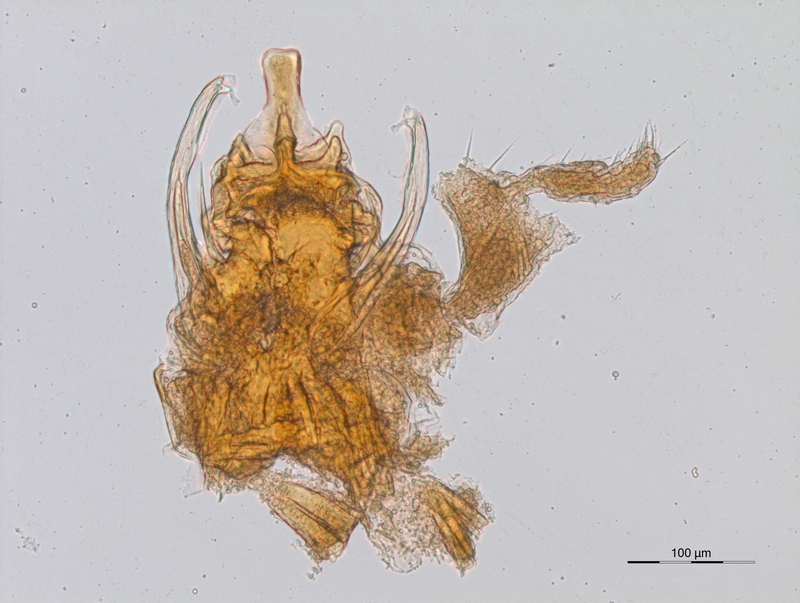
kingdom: Animalia
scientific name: Animalia
